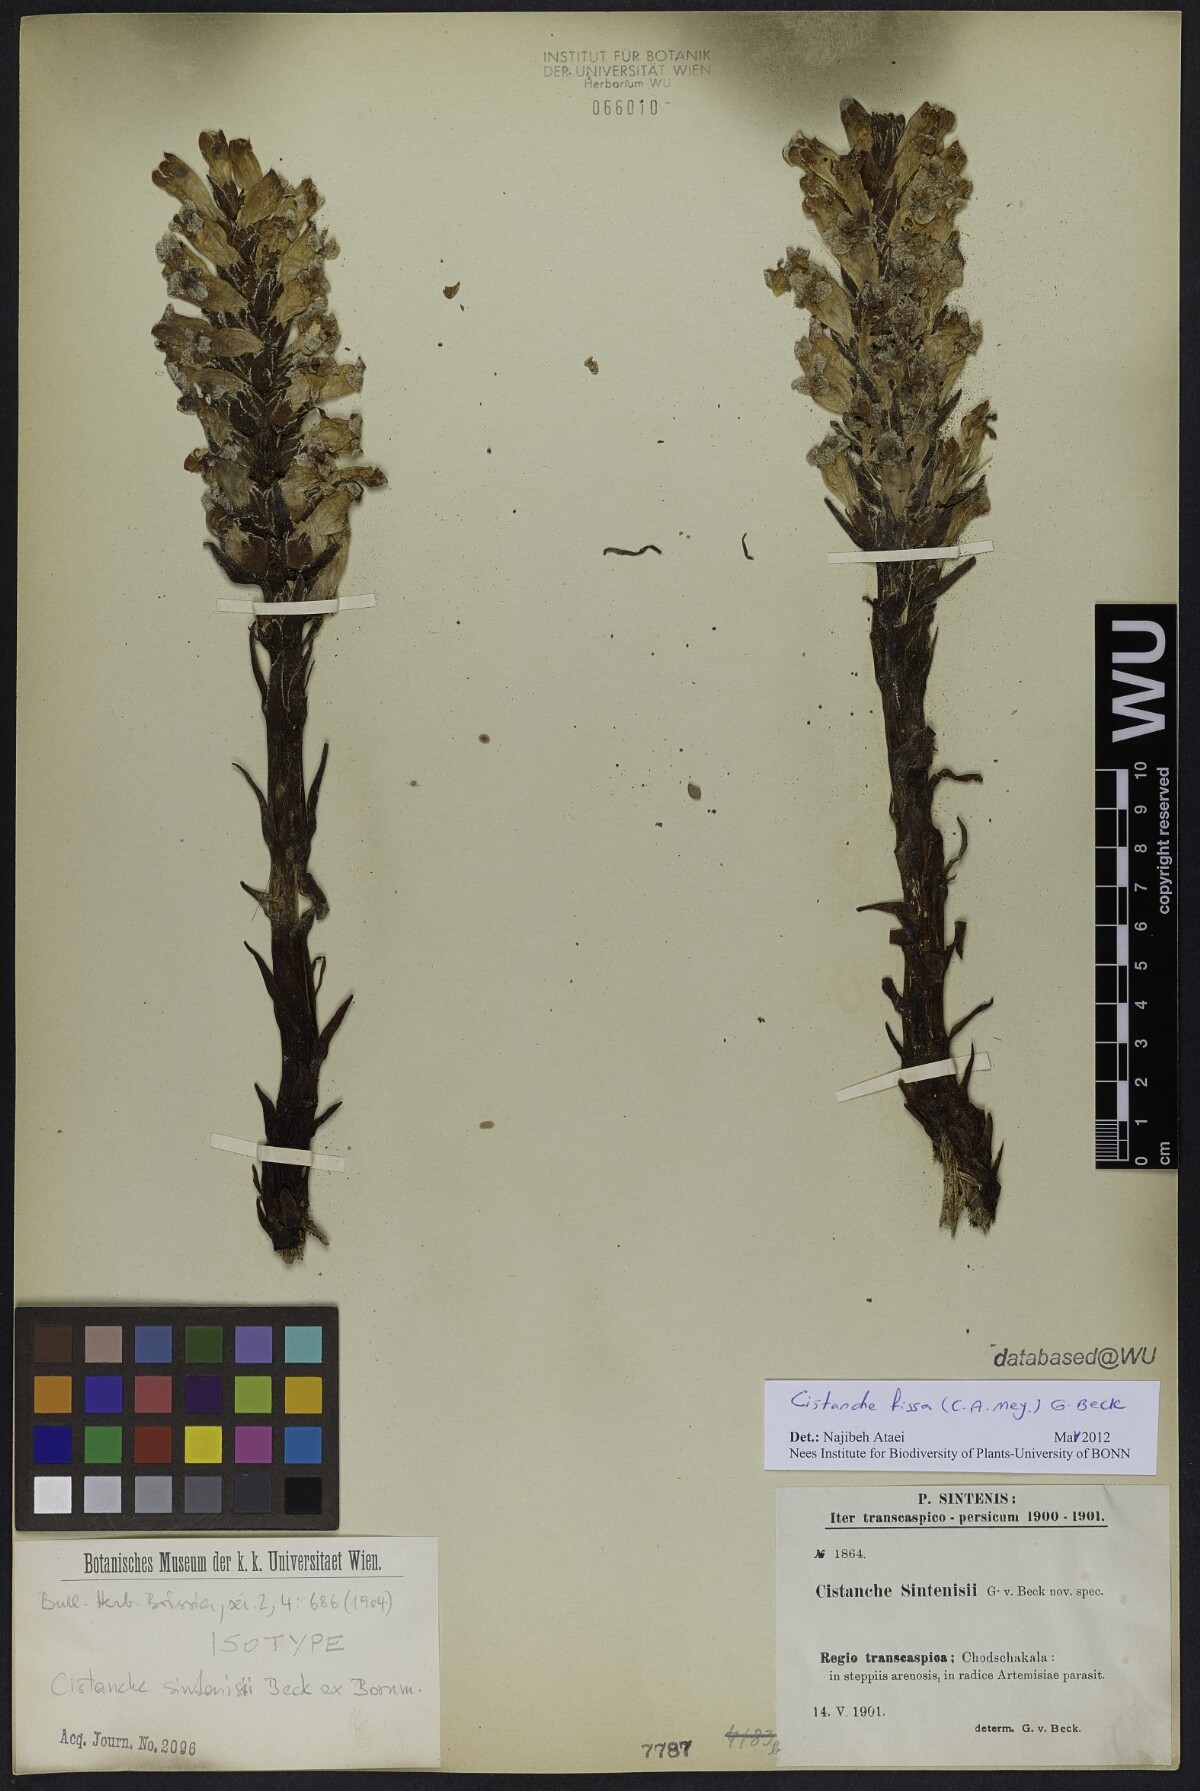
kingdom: Plantae
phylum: Tracheophyta
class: Magnoliopsida
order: Lamiales
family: Orobanchaceae
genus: Cistanche
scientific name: Cistanche fissa
